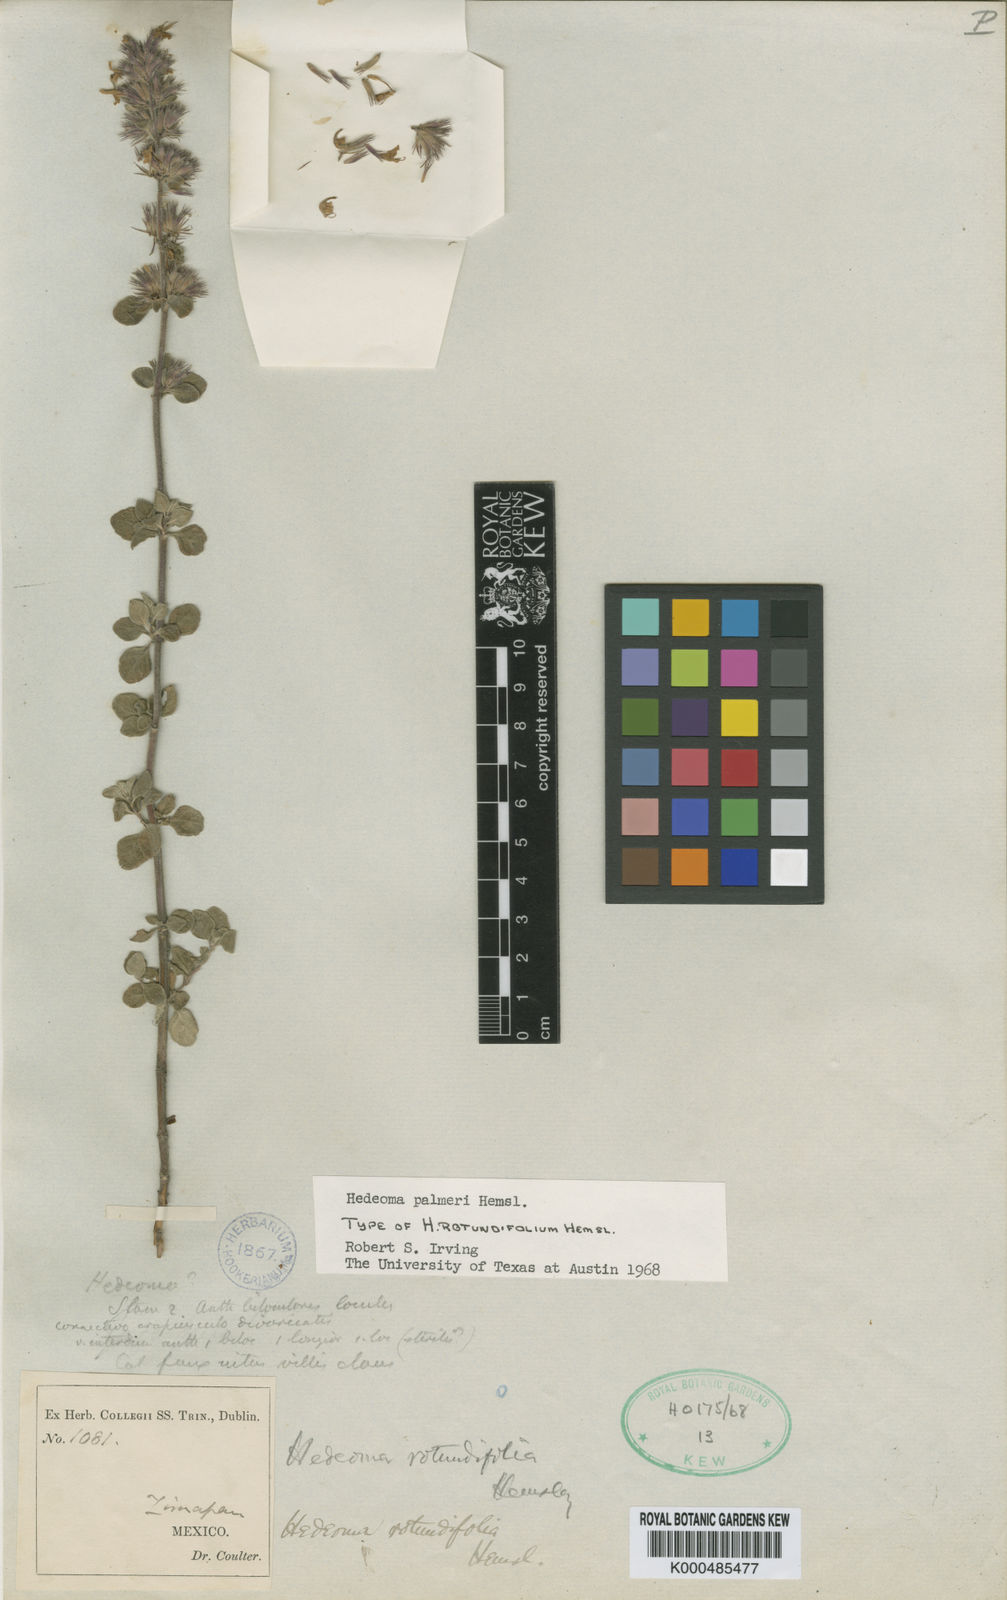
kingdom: Plantae
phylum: Tracheophyta
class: Magnoliopsida
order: Lamiales
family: Lamiaceae
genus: Hedeoma
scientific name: Hedeoma palmeri
